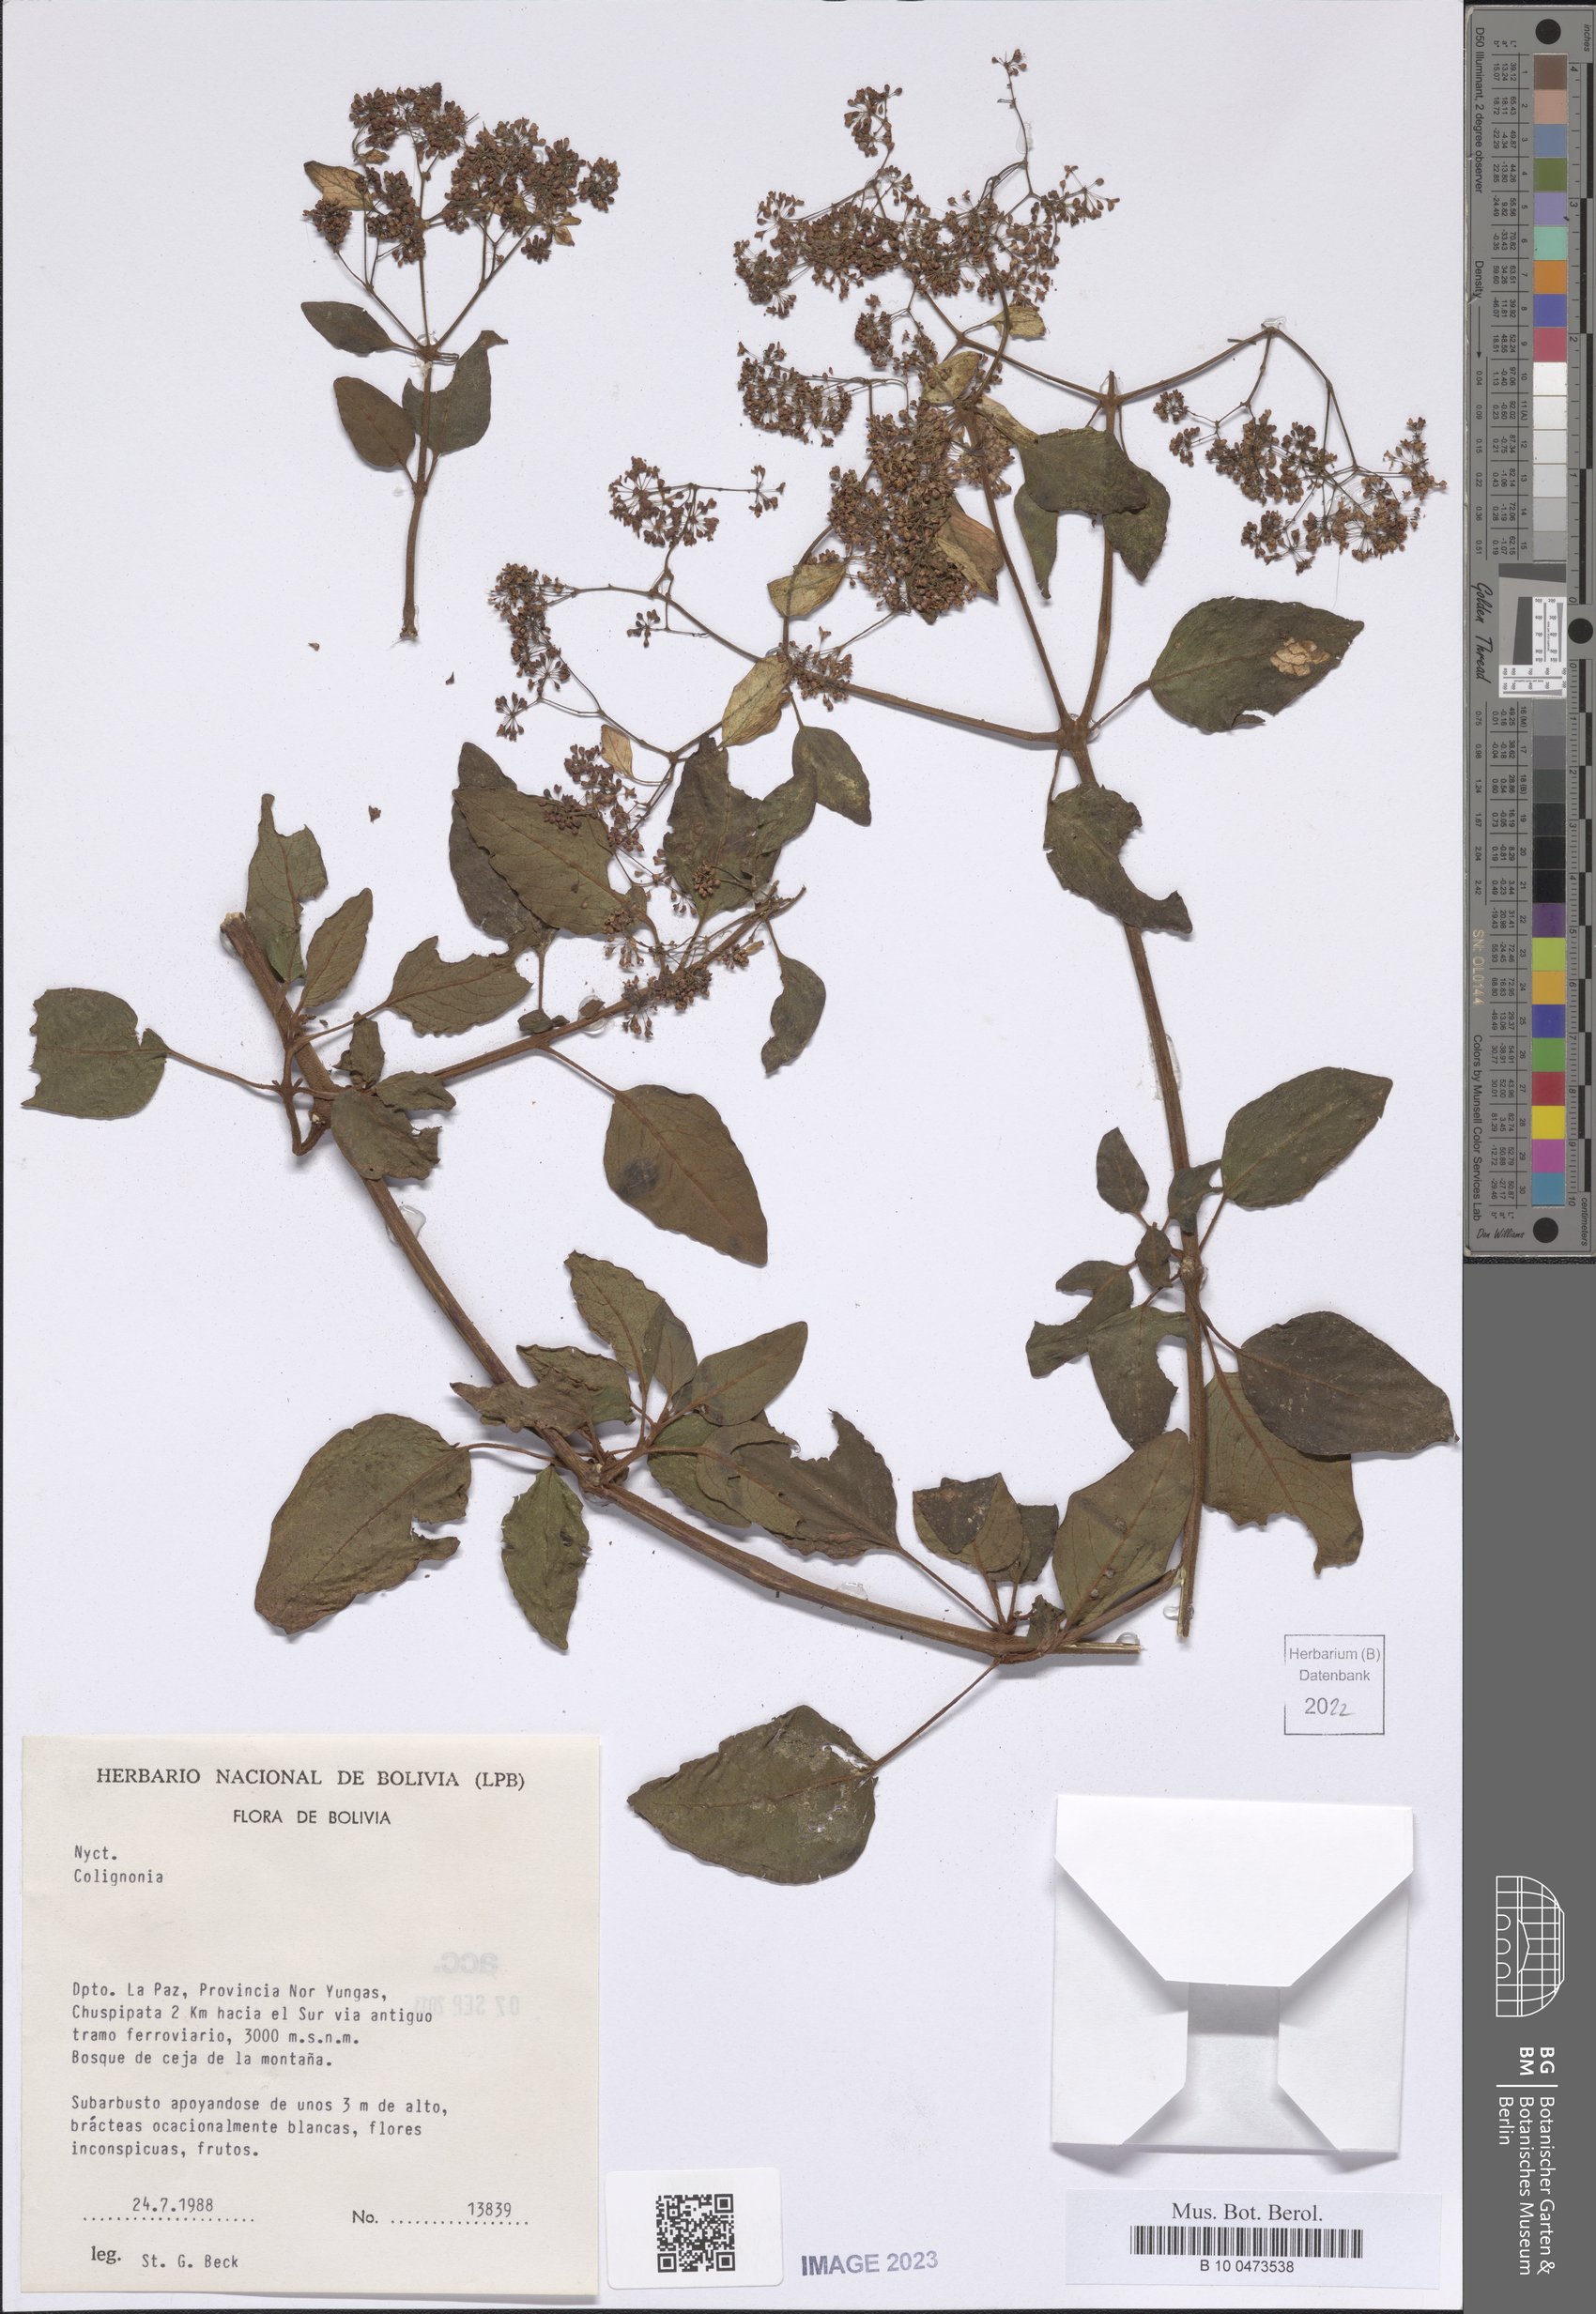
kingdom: Plantae
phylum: Tracheophyta
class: Magnoliopsida
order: Caryophyllales
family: Nyctaginaceae
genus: Colignonia
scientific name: Colignonia
